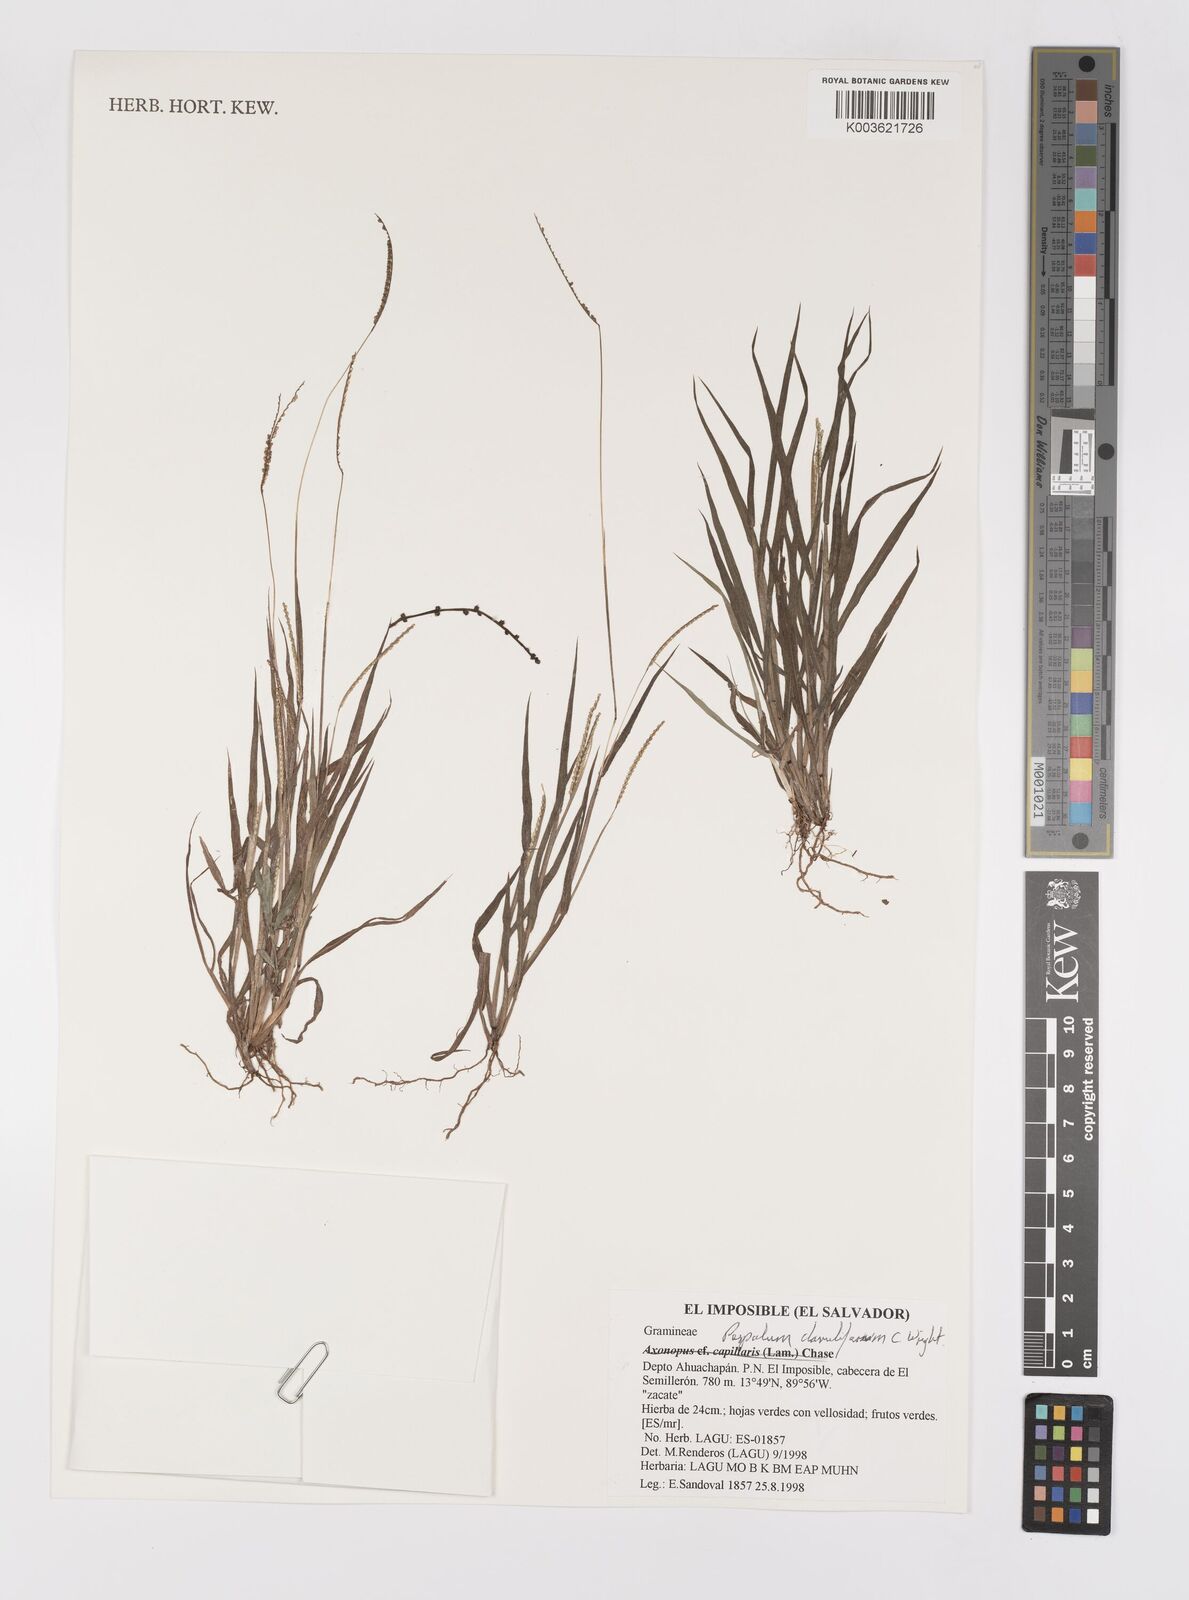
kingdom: Plantae
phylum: Tracheophyta
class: Liliopsida
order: Poales
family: Poaceae
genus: Paspalum
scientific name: Paspalum clavuliferum
